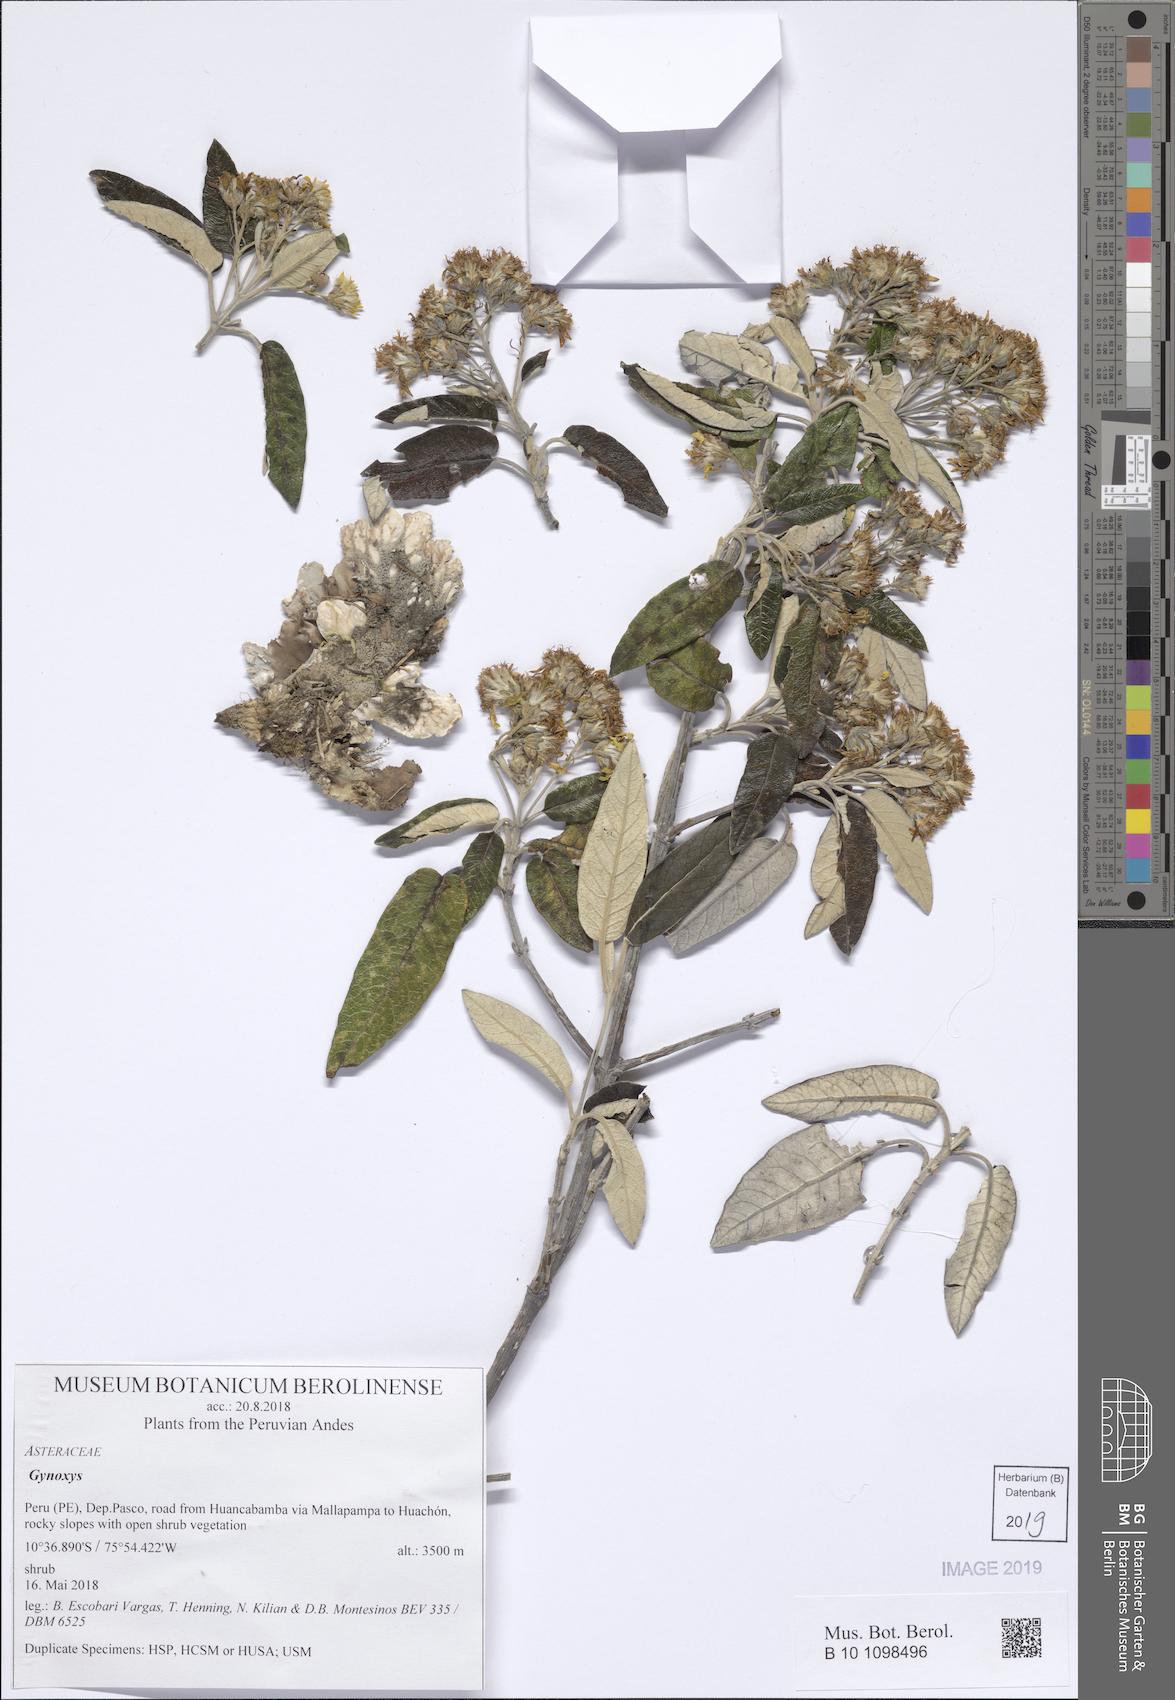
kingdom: Plantae
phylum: Tracheophyta
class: Magnoliopsida
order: Asterales
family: Asteraceae
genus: Gynoxys
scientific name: Gynoxys
